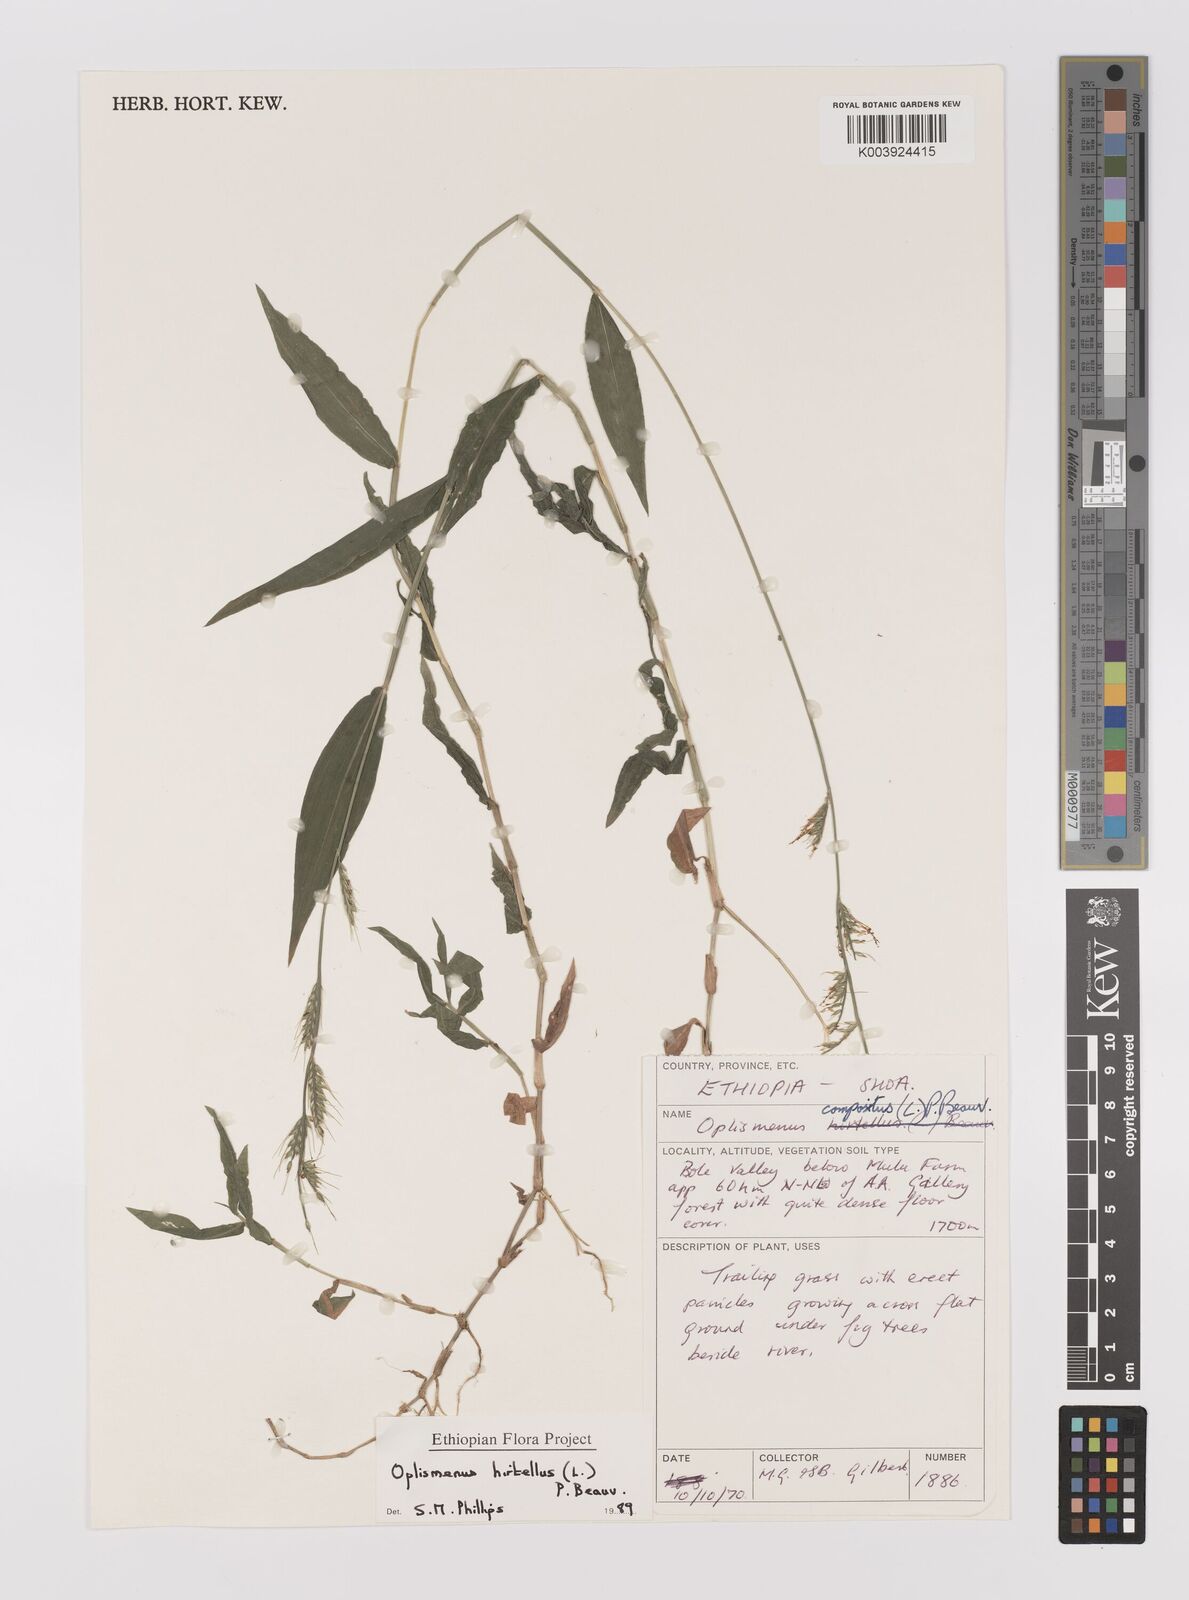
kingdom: Plantae
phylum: Tracheophyta
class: Liliopsida
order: Poales
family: Poaceae
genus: Oplismenus
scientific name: Oplismenus hirtellus
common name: Basketgrass
